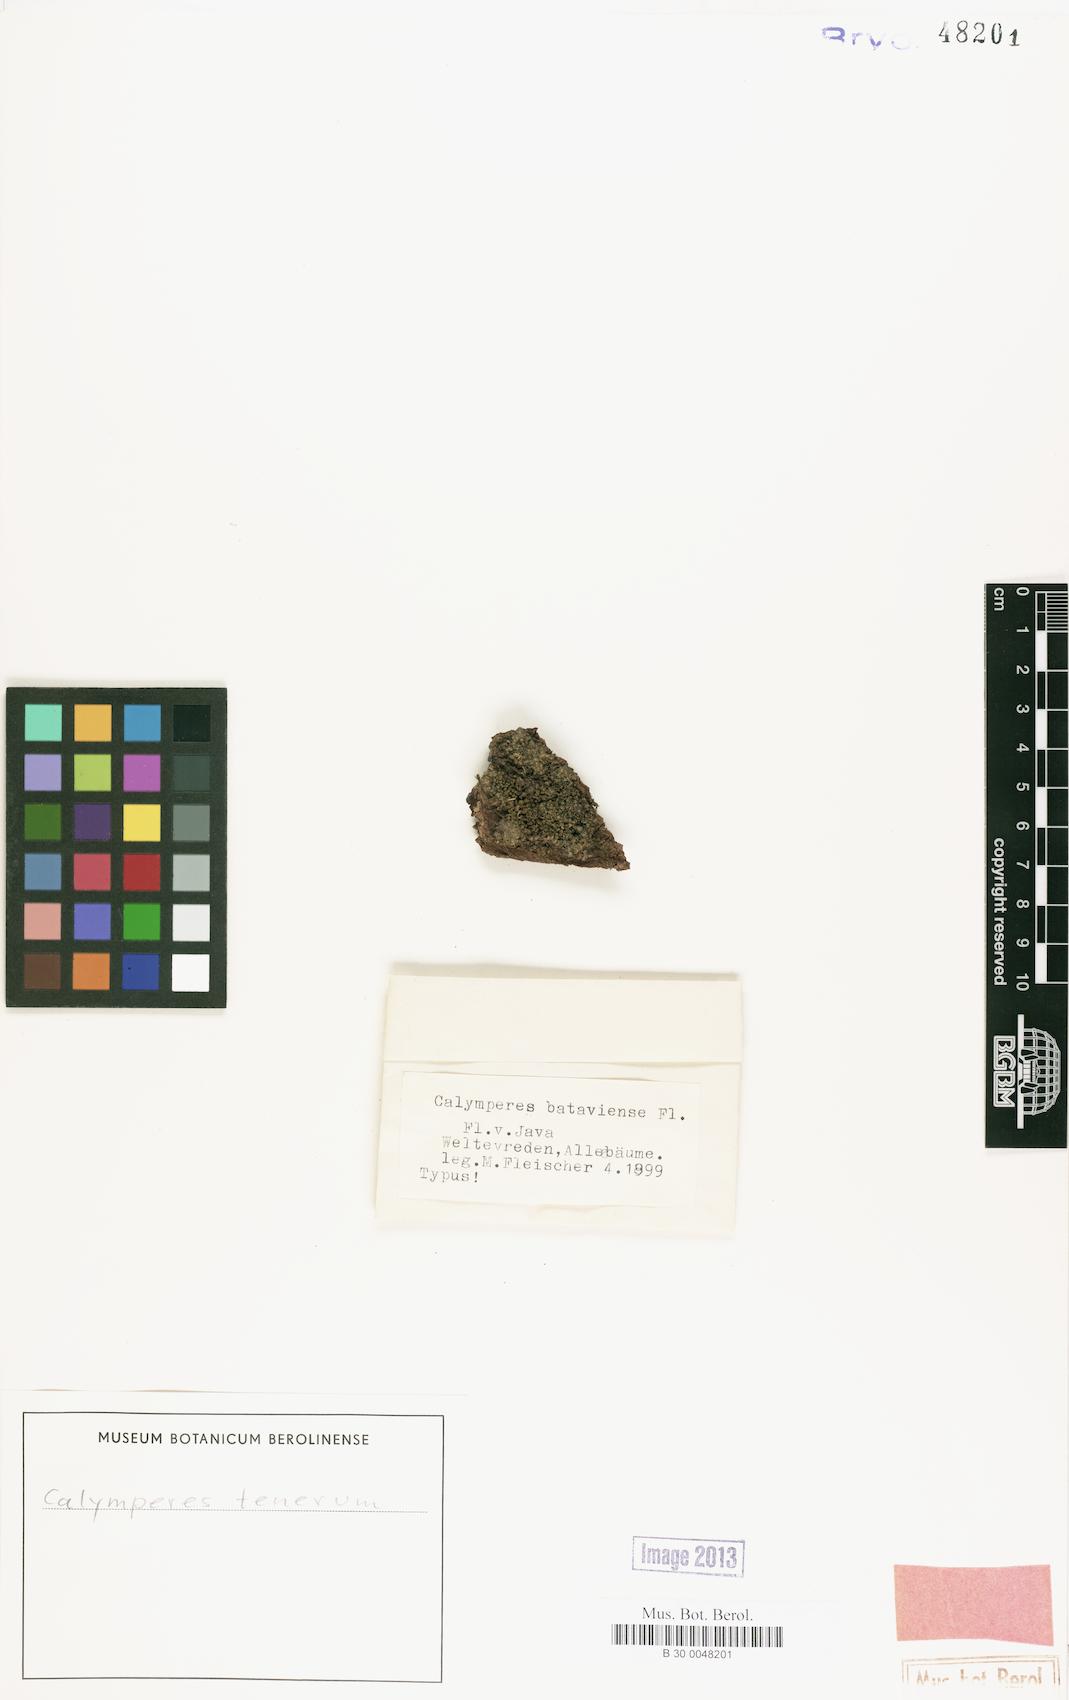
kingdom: Plantae
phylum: Bryophyta
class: Bryopsida
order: Dicranales
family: Calymperaceae
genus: Calymperes
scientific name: Calymperes tenerum
